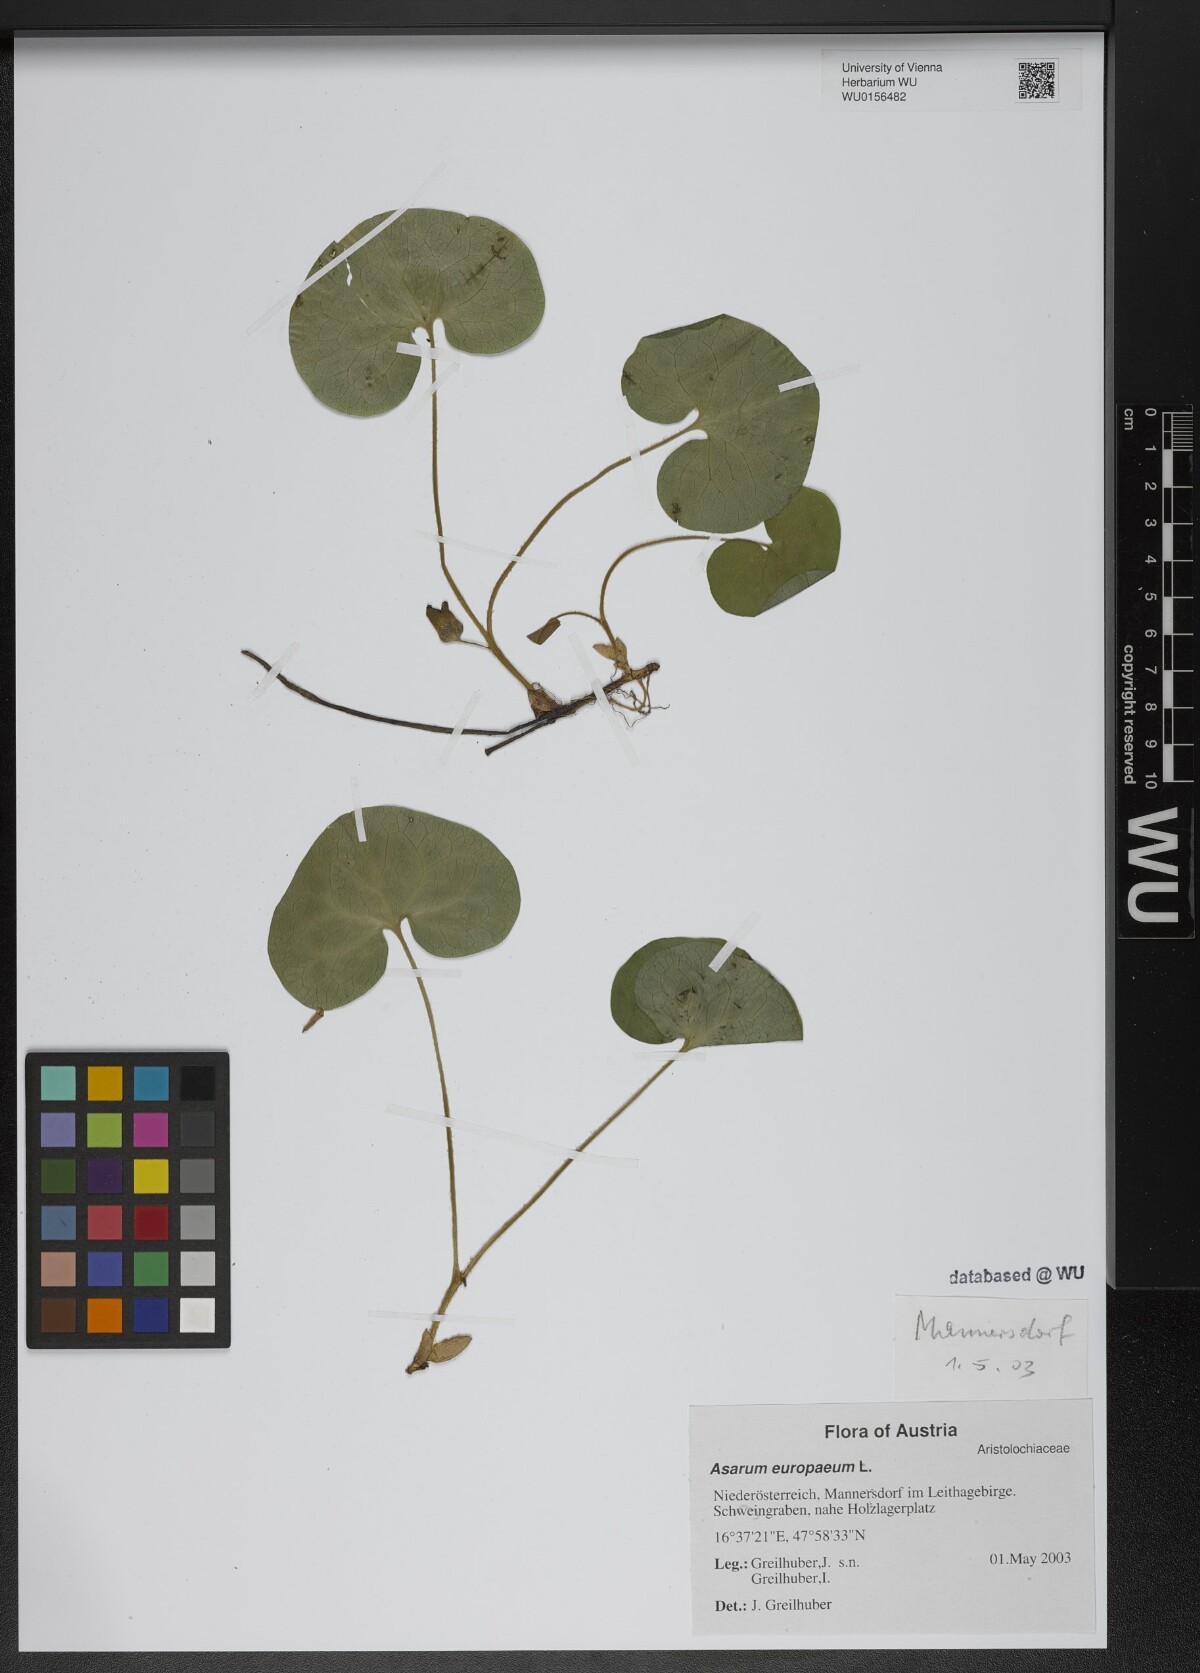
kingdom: Plantae
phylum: Tracheophyta
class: Magnoliopsida
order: Piperales
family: Aristolochiaceae
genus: Asarum
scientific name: Asarum europaeum
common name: Asarabacca
